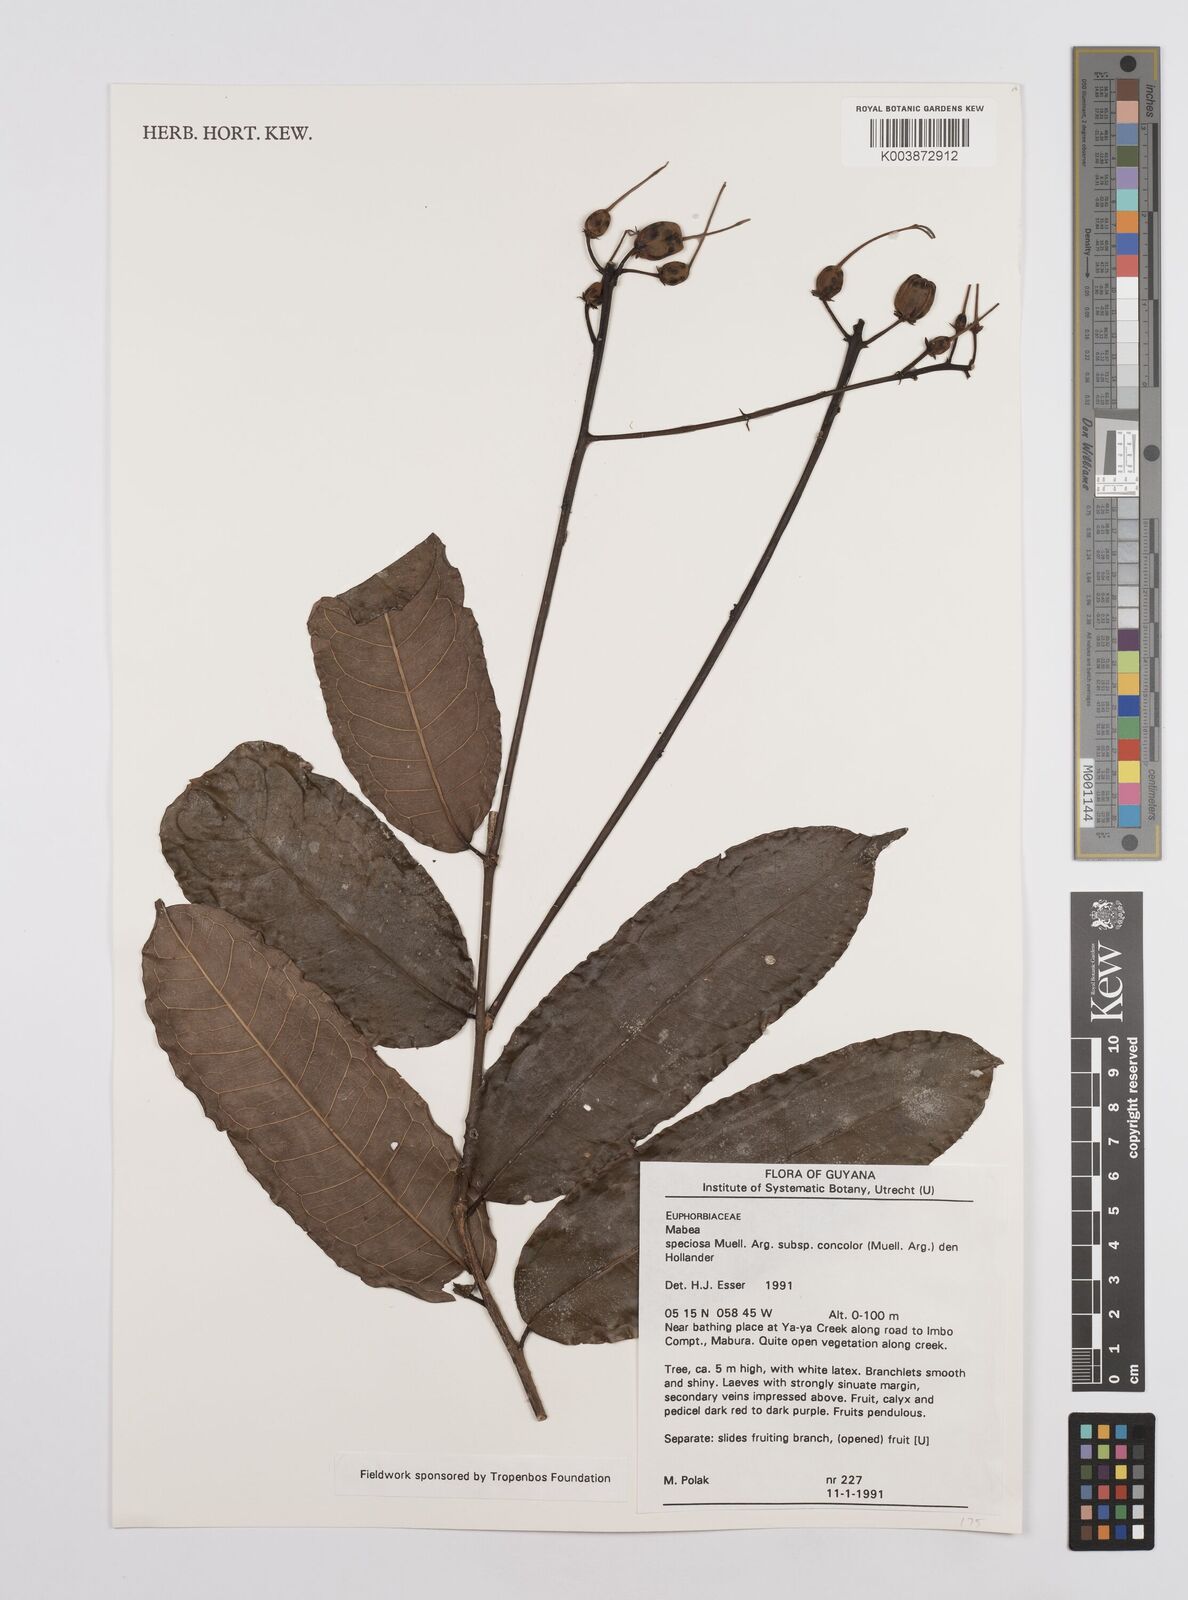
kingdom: Plantae
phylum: Tracheophyta
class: Magnoliopsida
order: Malpighiales
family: Euphorbiaceae
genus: Mabea
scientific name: Mabea piriri
